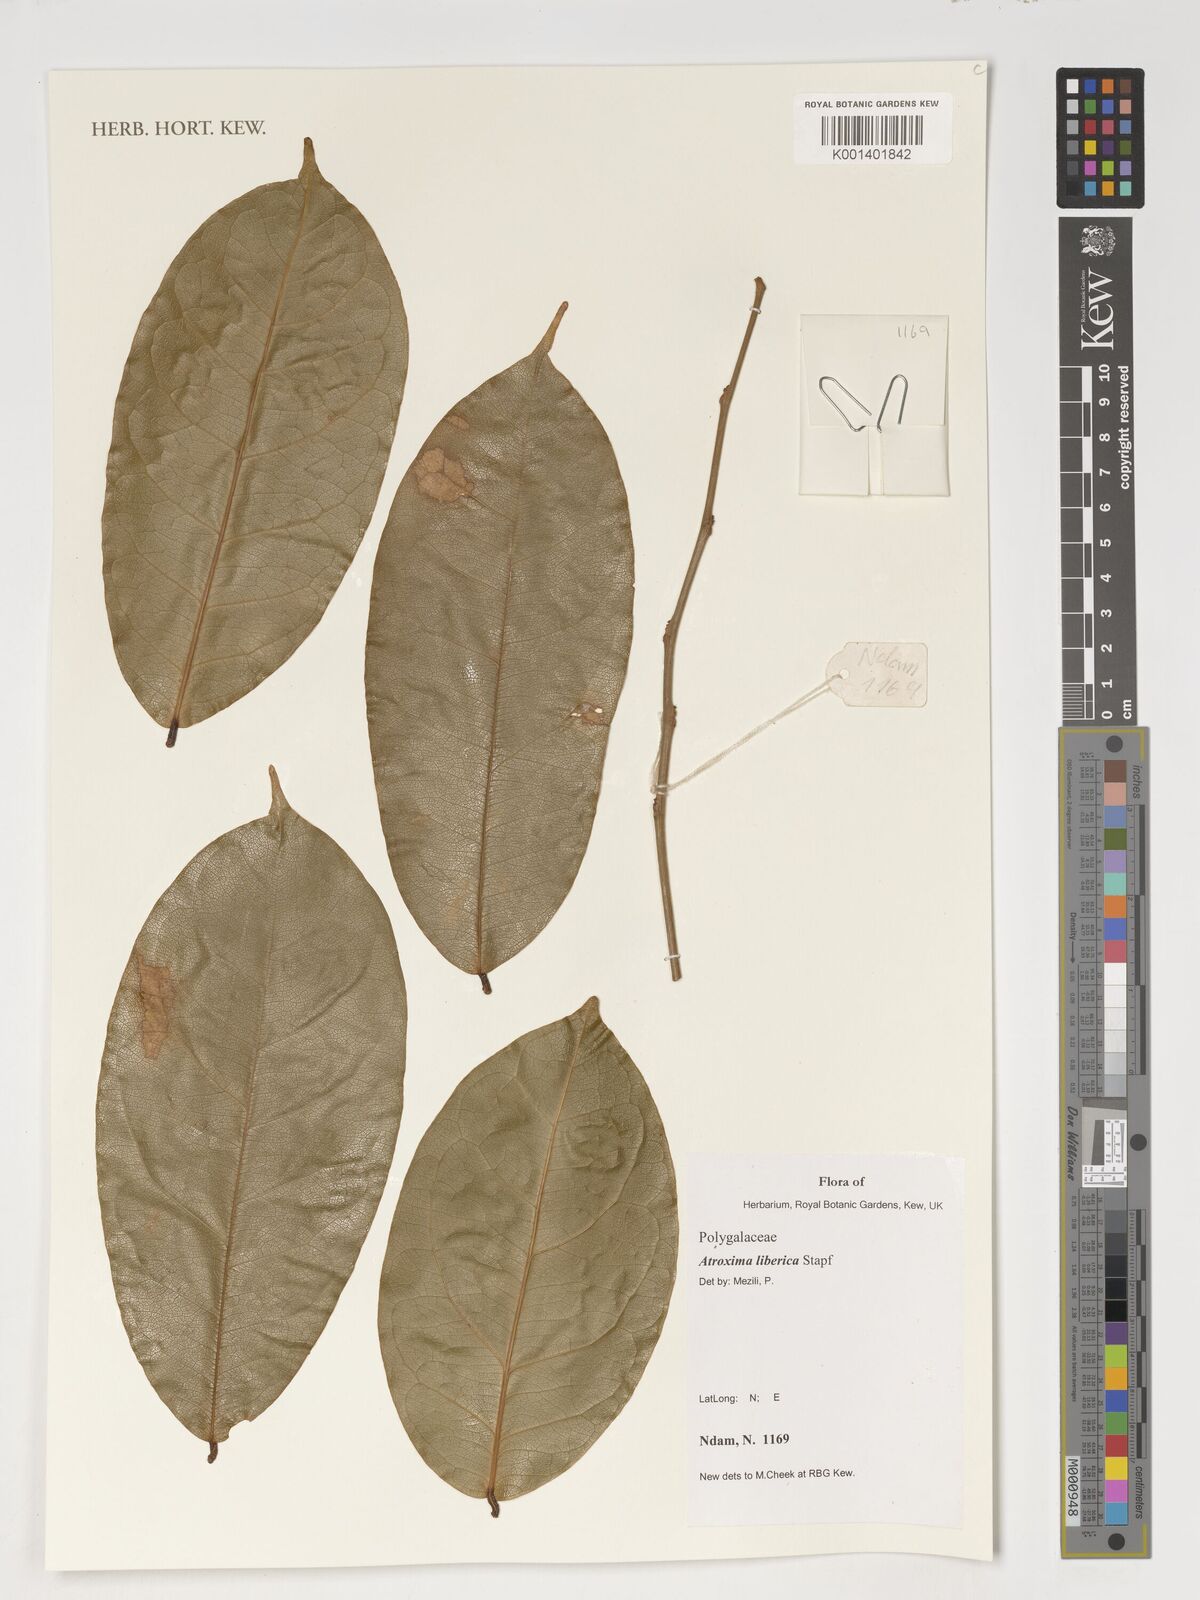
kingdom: Plantae
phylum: Tracheophyta
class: Magnoliopsida
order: Fabales
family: Polygalaceae
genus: Atroxima
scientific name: Atroxima liberica
